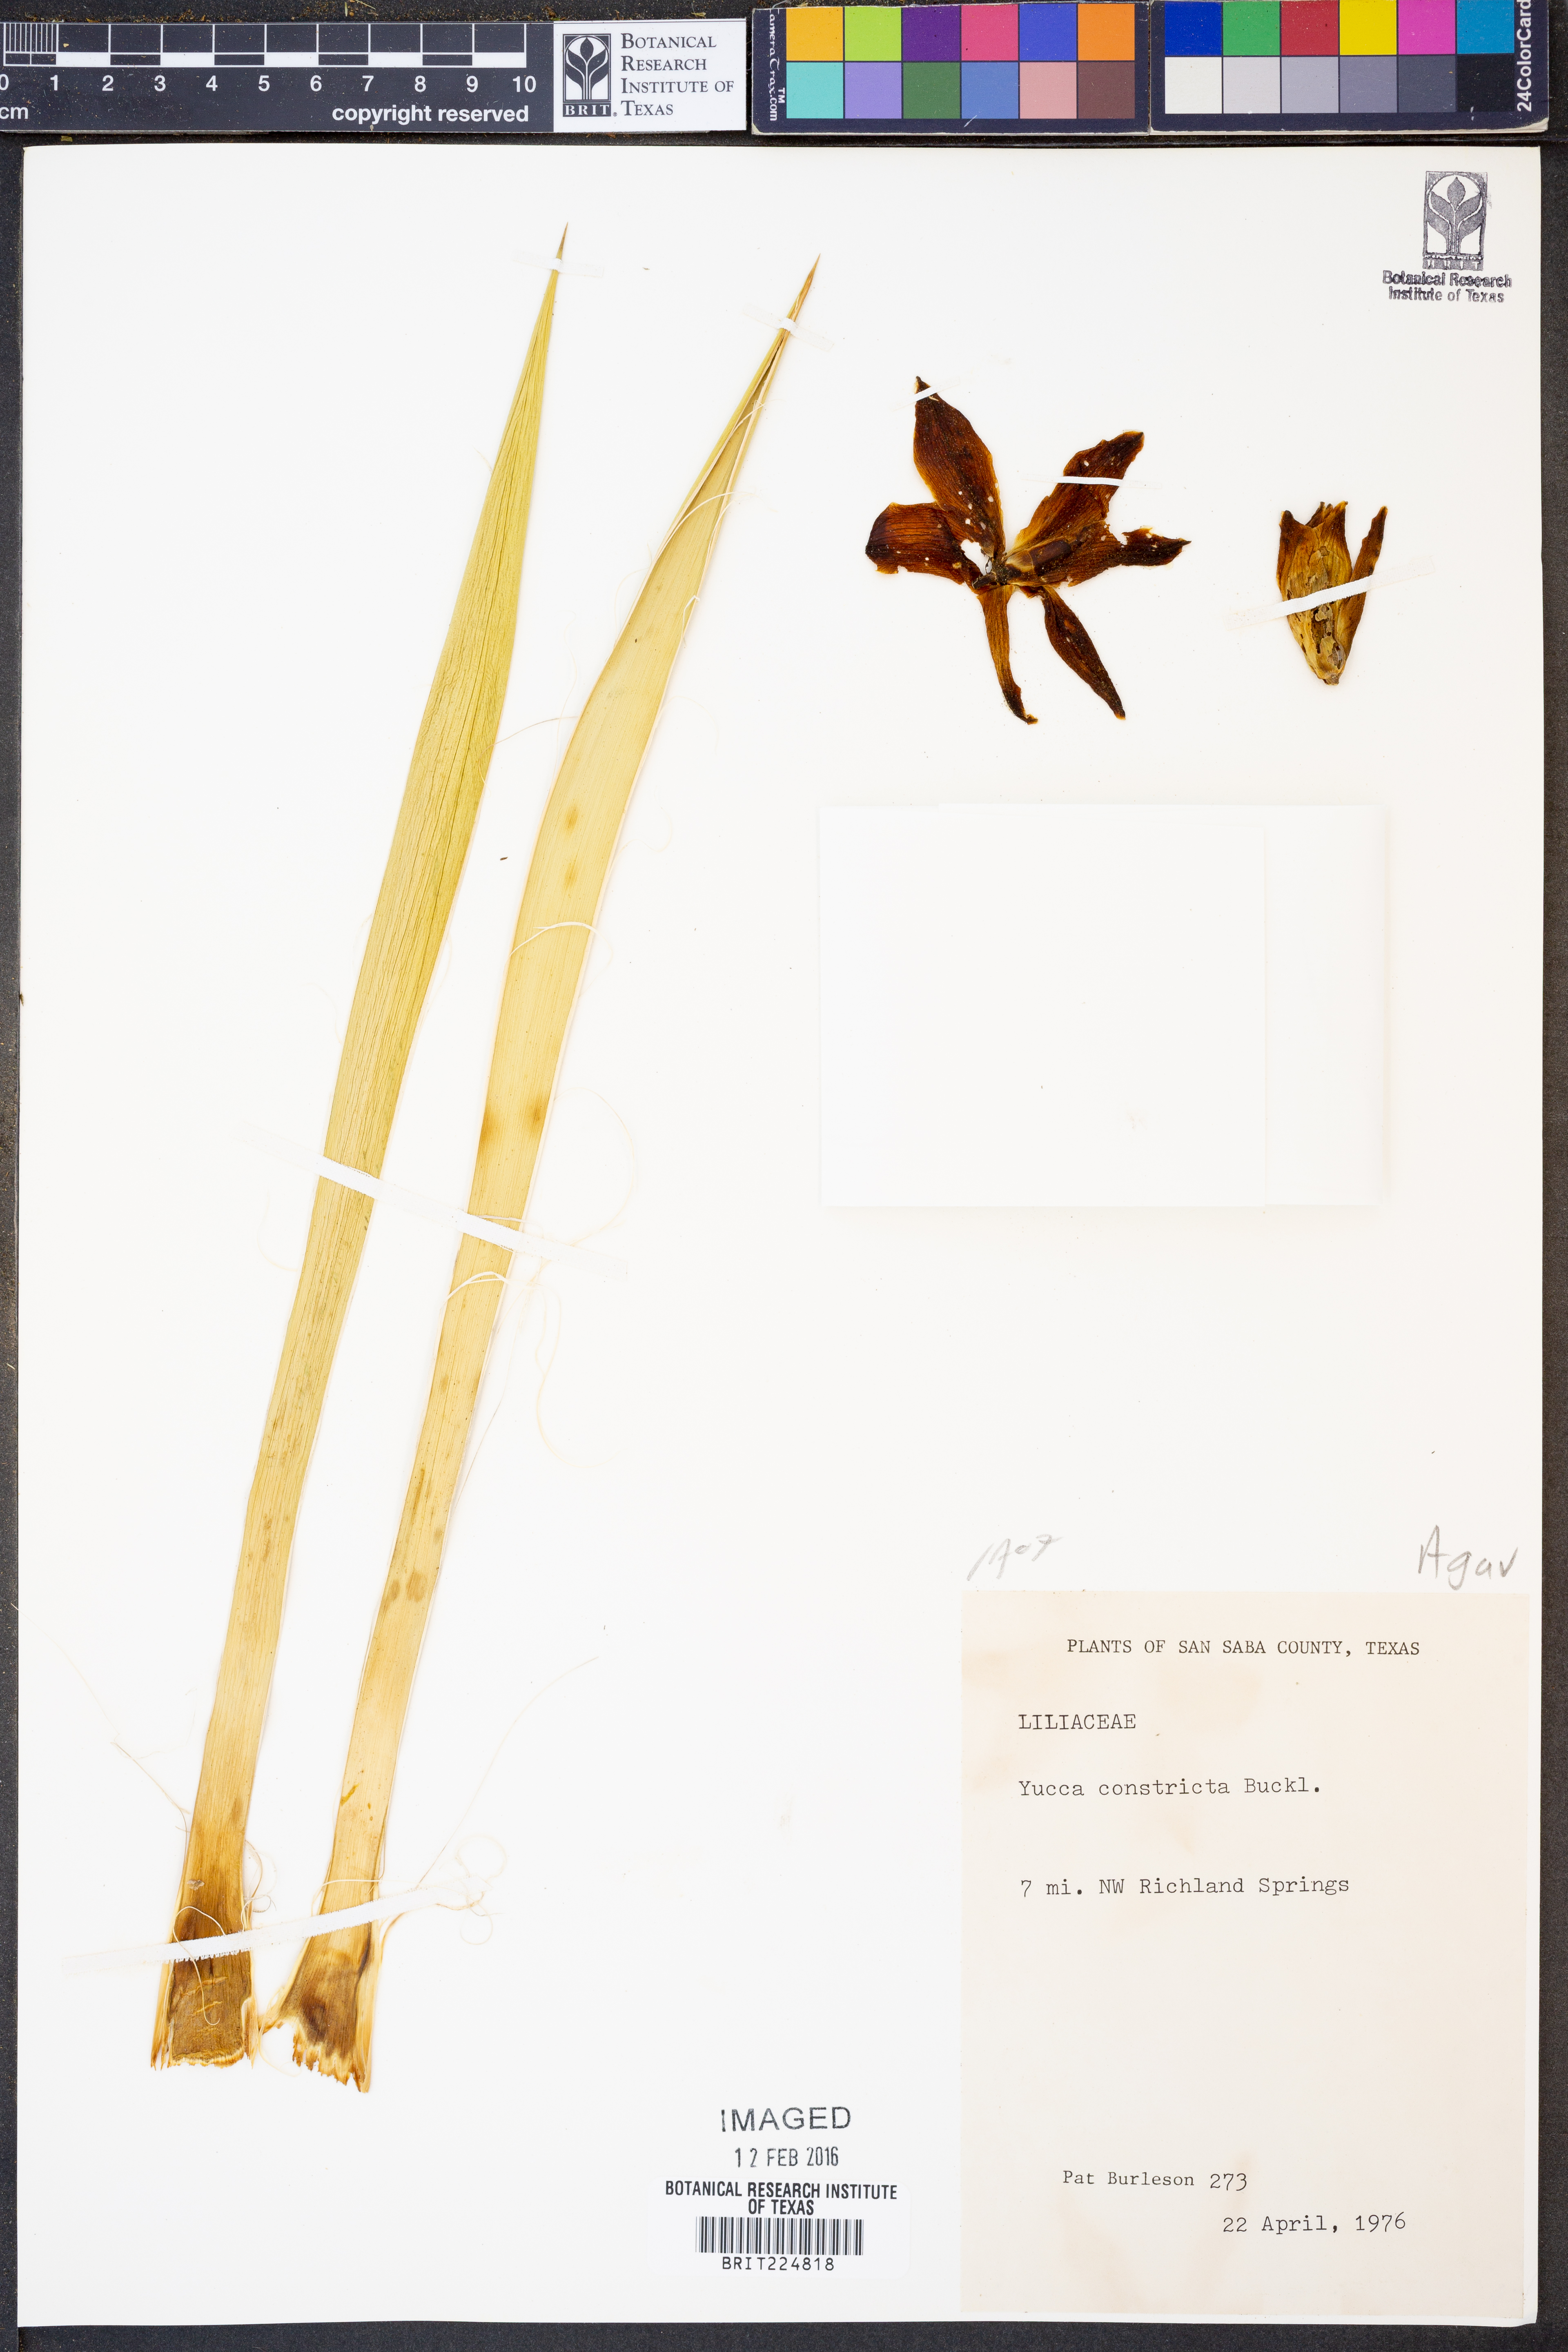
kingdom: Plantae
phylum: Tracheophyta
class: Liliopsida
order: Asparagales
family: Asparagaceae
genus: Yucca
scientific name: Yucca constricta
